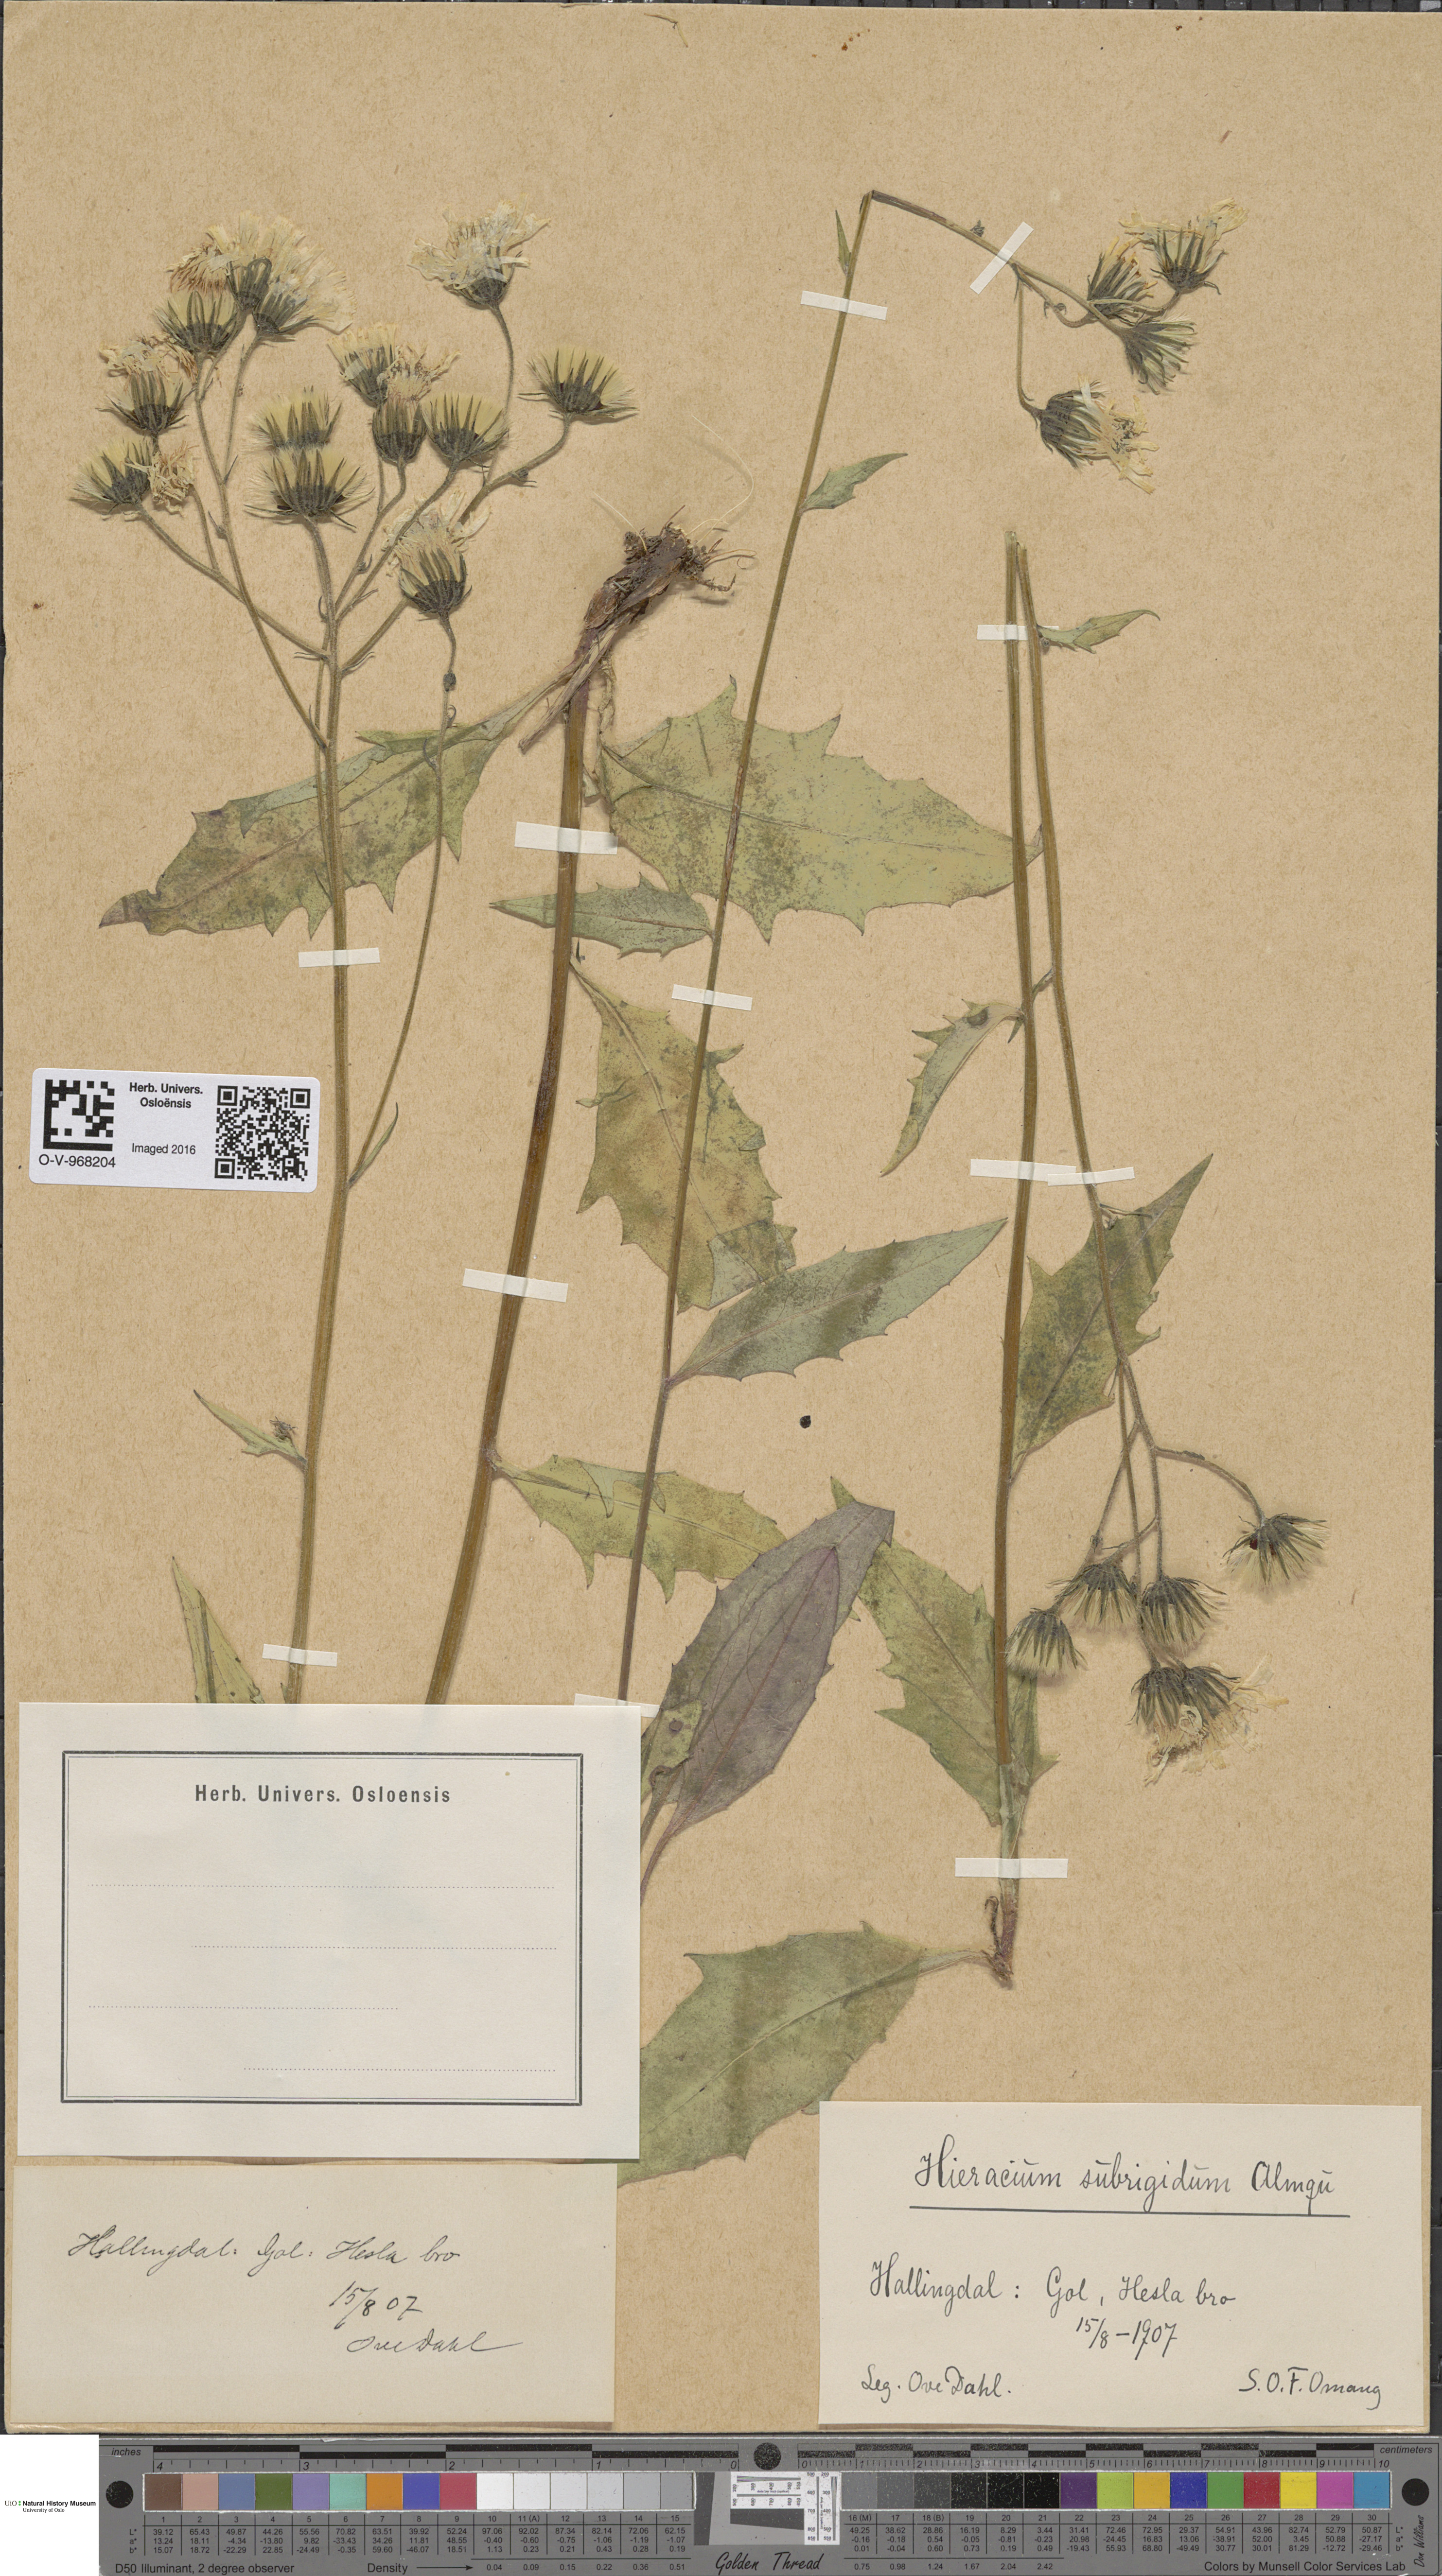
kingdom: Plantae
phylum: Tracheophyta
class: Magnoliopsida
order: Asterales
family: Asteraceae
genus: Hieracium
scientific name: Hieracium subrigidum
